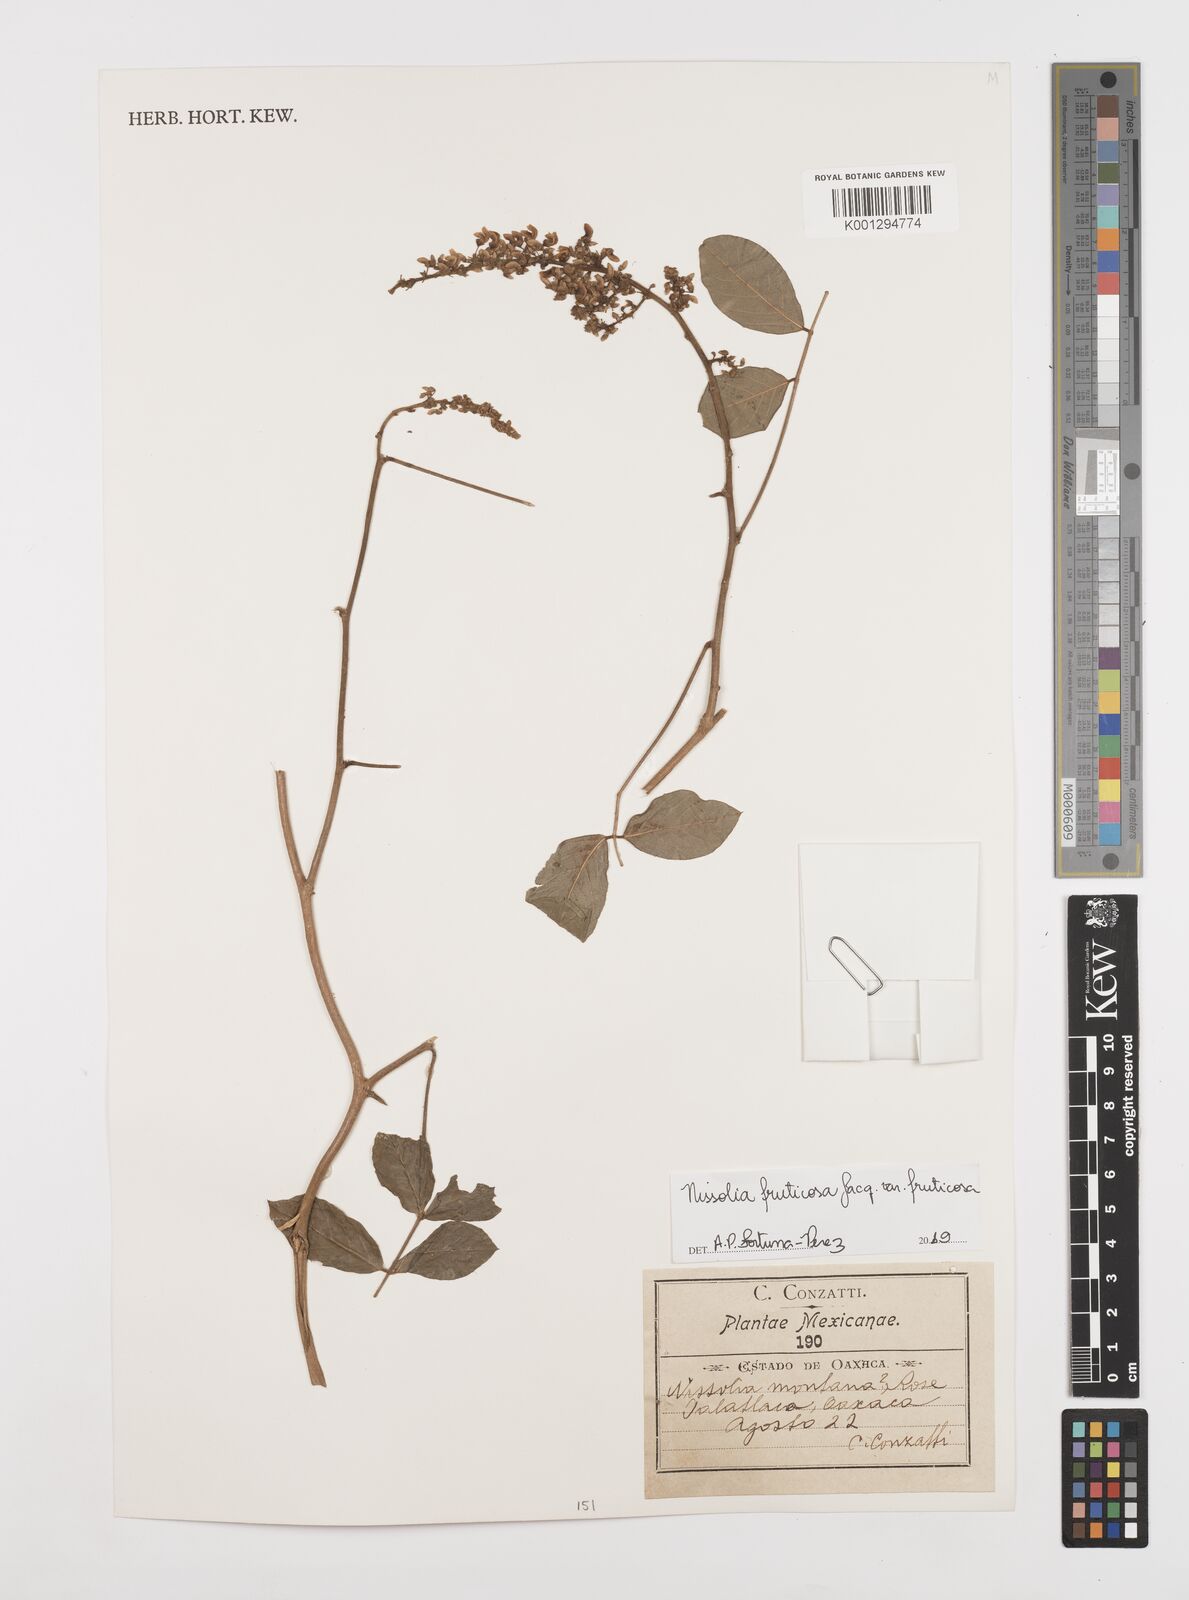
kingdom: Plantae
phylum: Tracheophyta
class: Magnoliopsida
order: Fabales
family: Fabaceae
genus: Nissolia
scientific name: Nissolia montana
